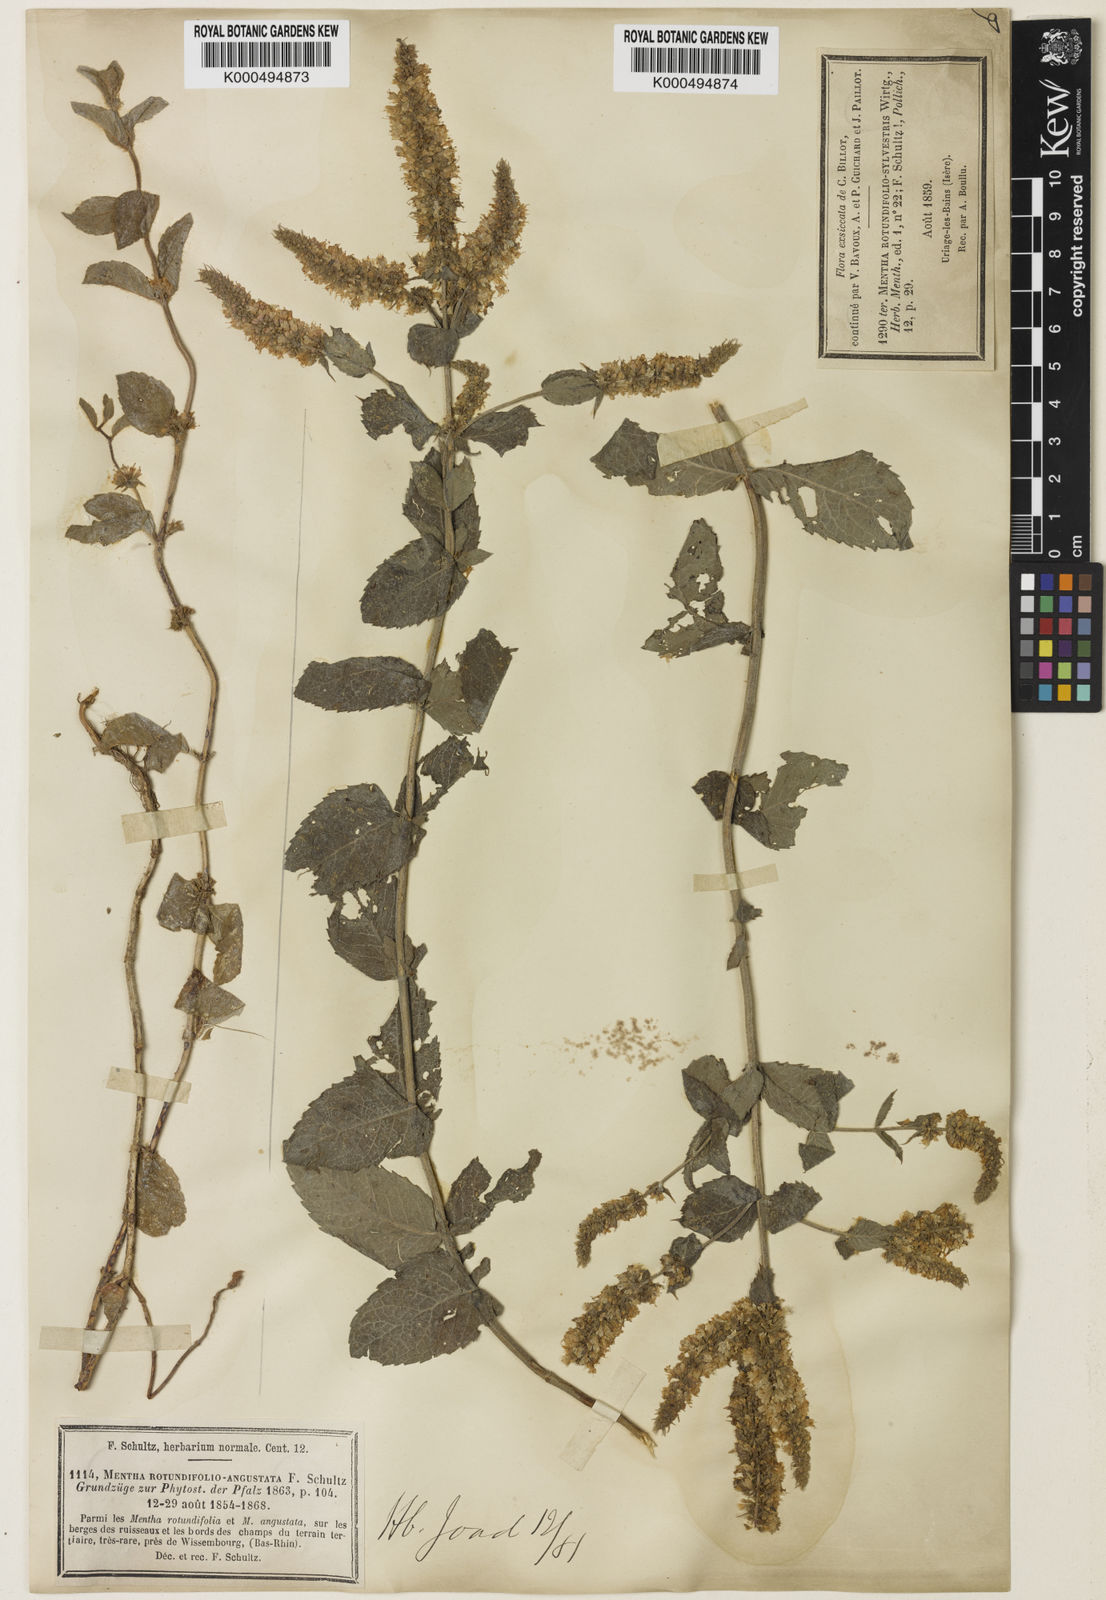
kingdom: Plantae
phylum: Tracheophyta
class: Magnoliopsida
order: Lamiales
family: Lamiaceae
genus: Mentha
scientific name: Mentha rotundifolia
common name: Bigleaf mint
